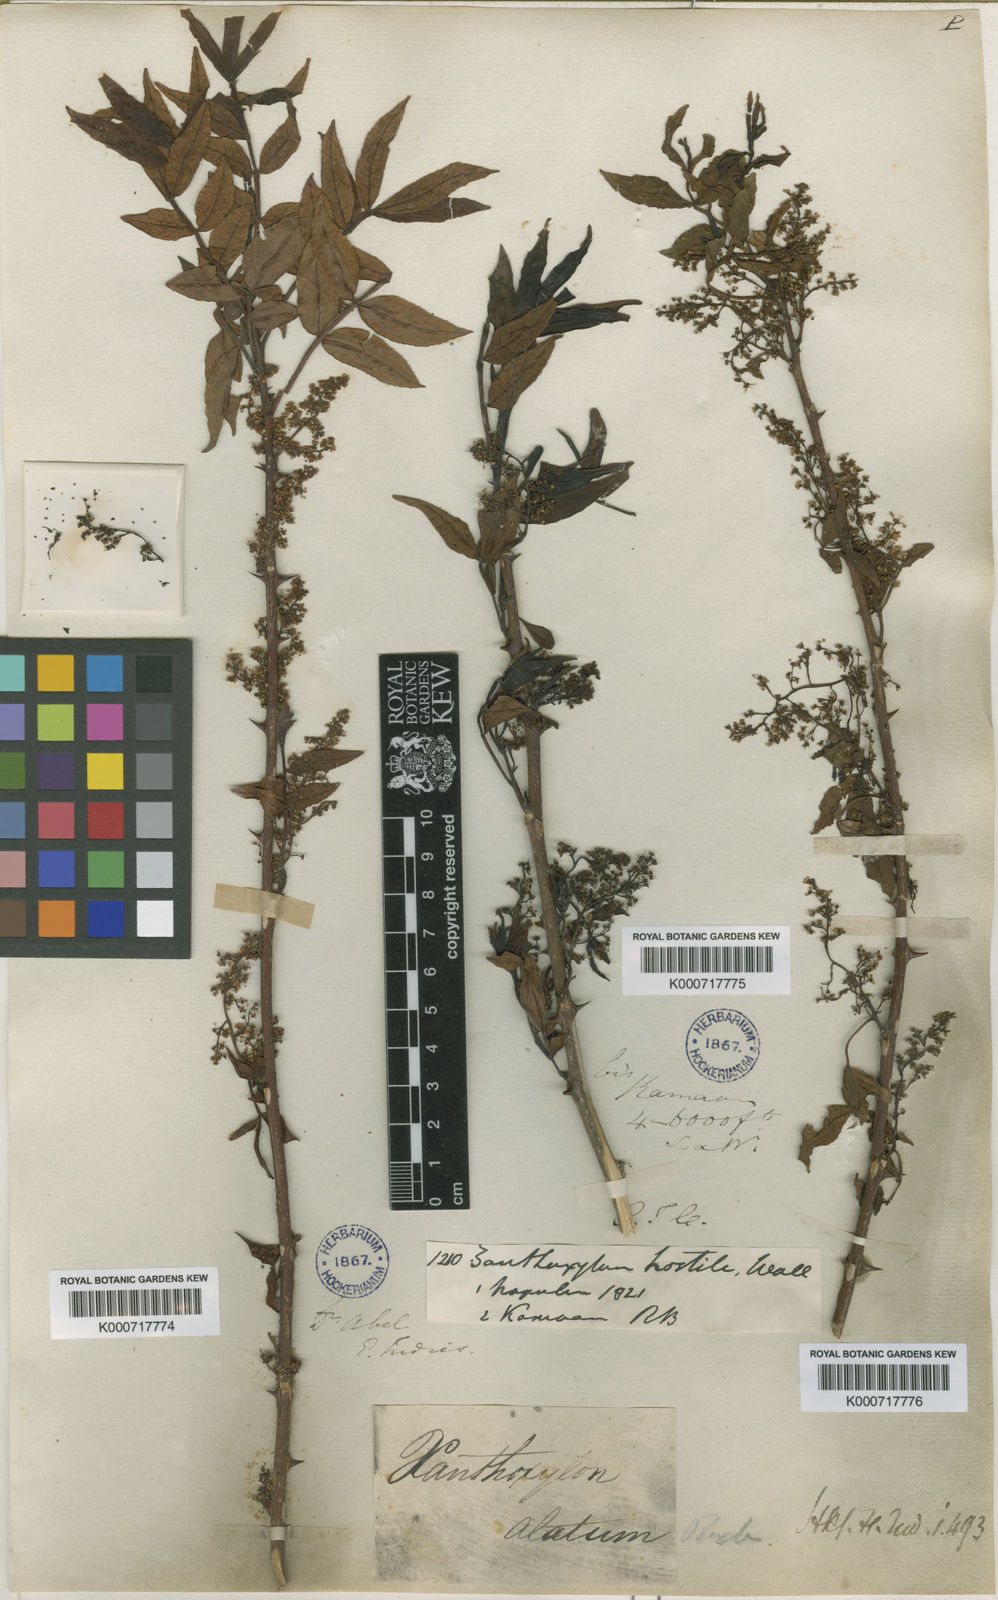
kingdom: Plantae
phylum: Tracheophyta
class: Magnoliopsida
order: Sapindales
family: Rutaceae
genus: Zanthoxylum
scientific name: Zanthoxylum armatum
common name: Winged prickly-ash
